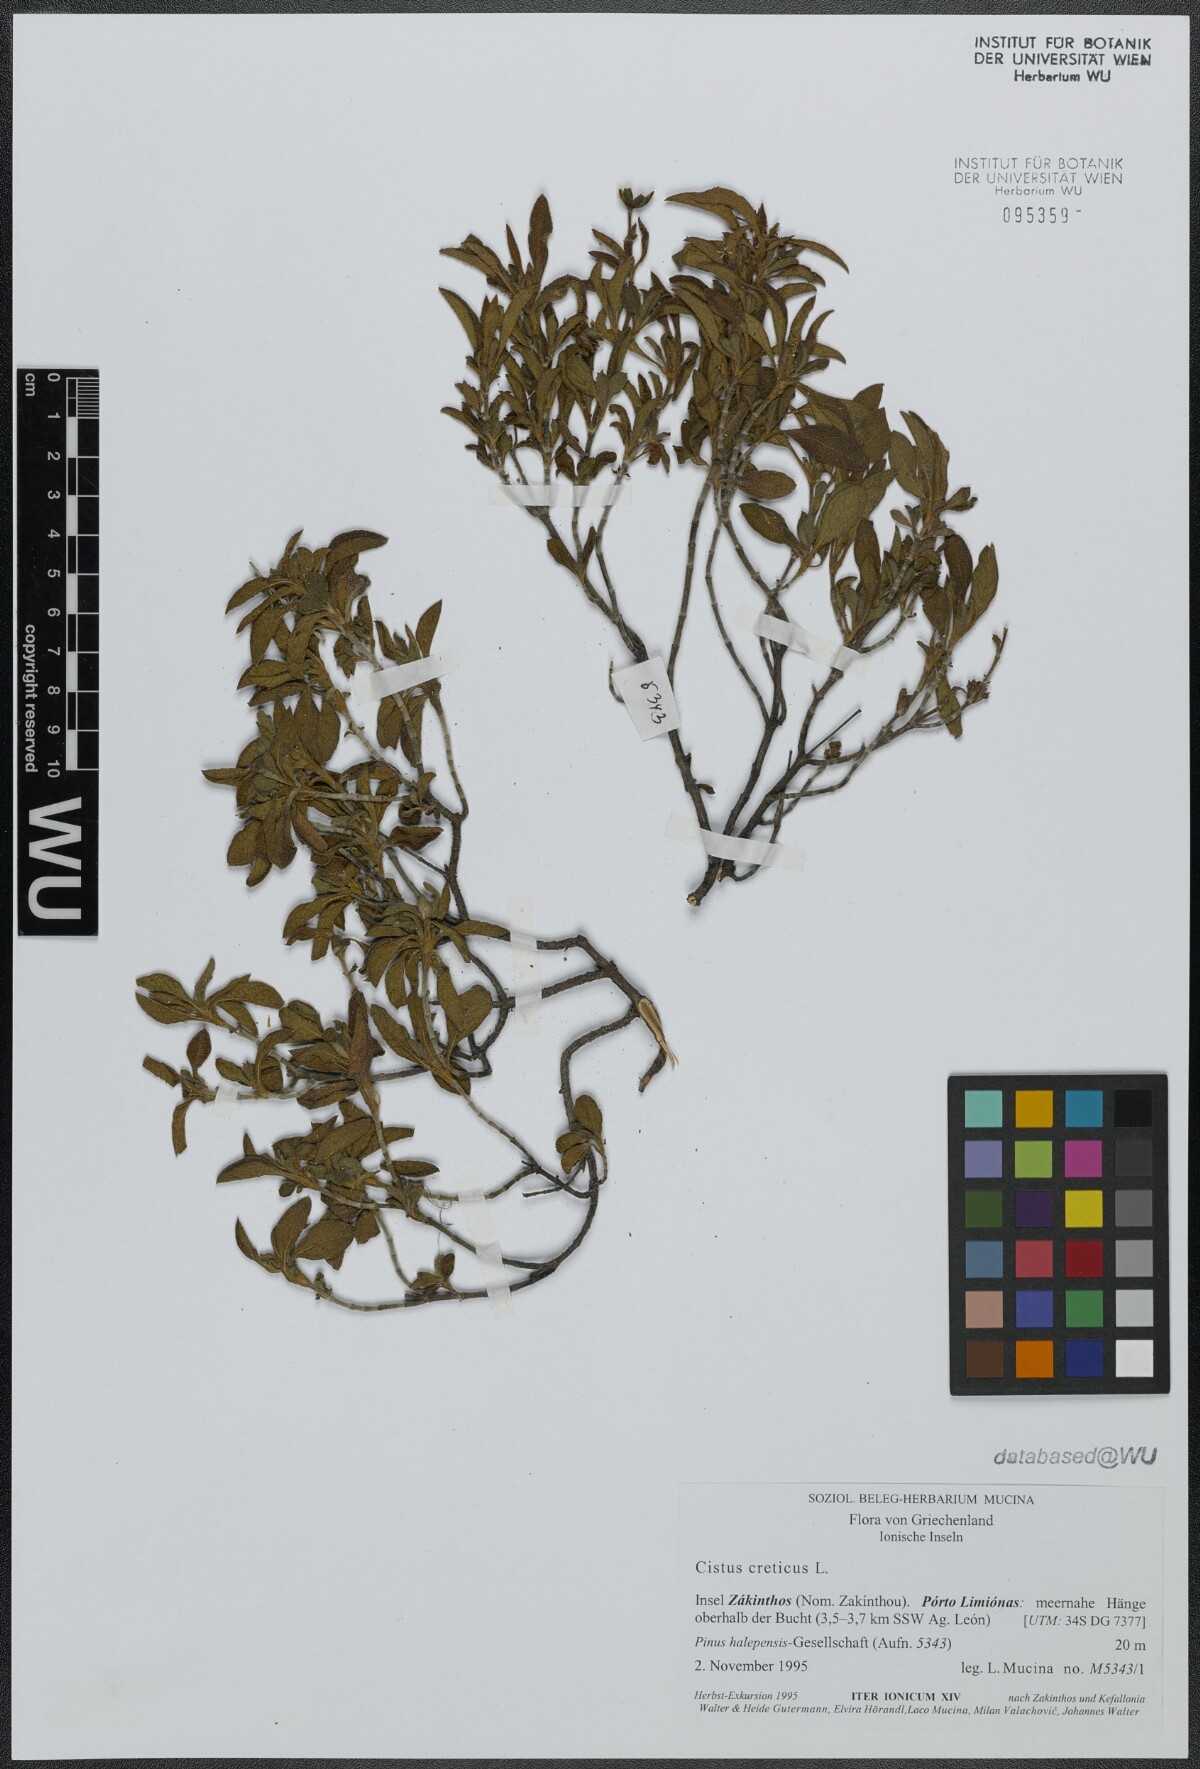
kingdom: Plantae
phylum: Tracheophyta
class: Magnoliopsida
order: Malvales
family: Cistaceae
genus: Cistus
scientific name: Cistus creticus
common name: Cretan rockrose
